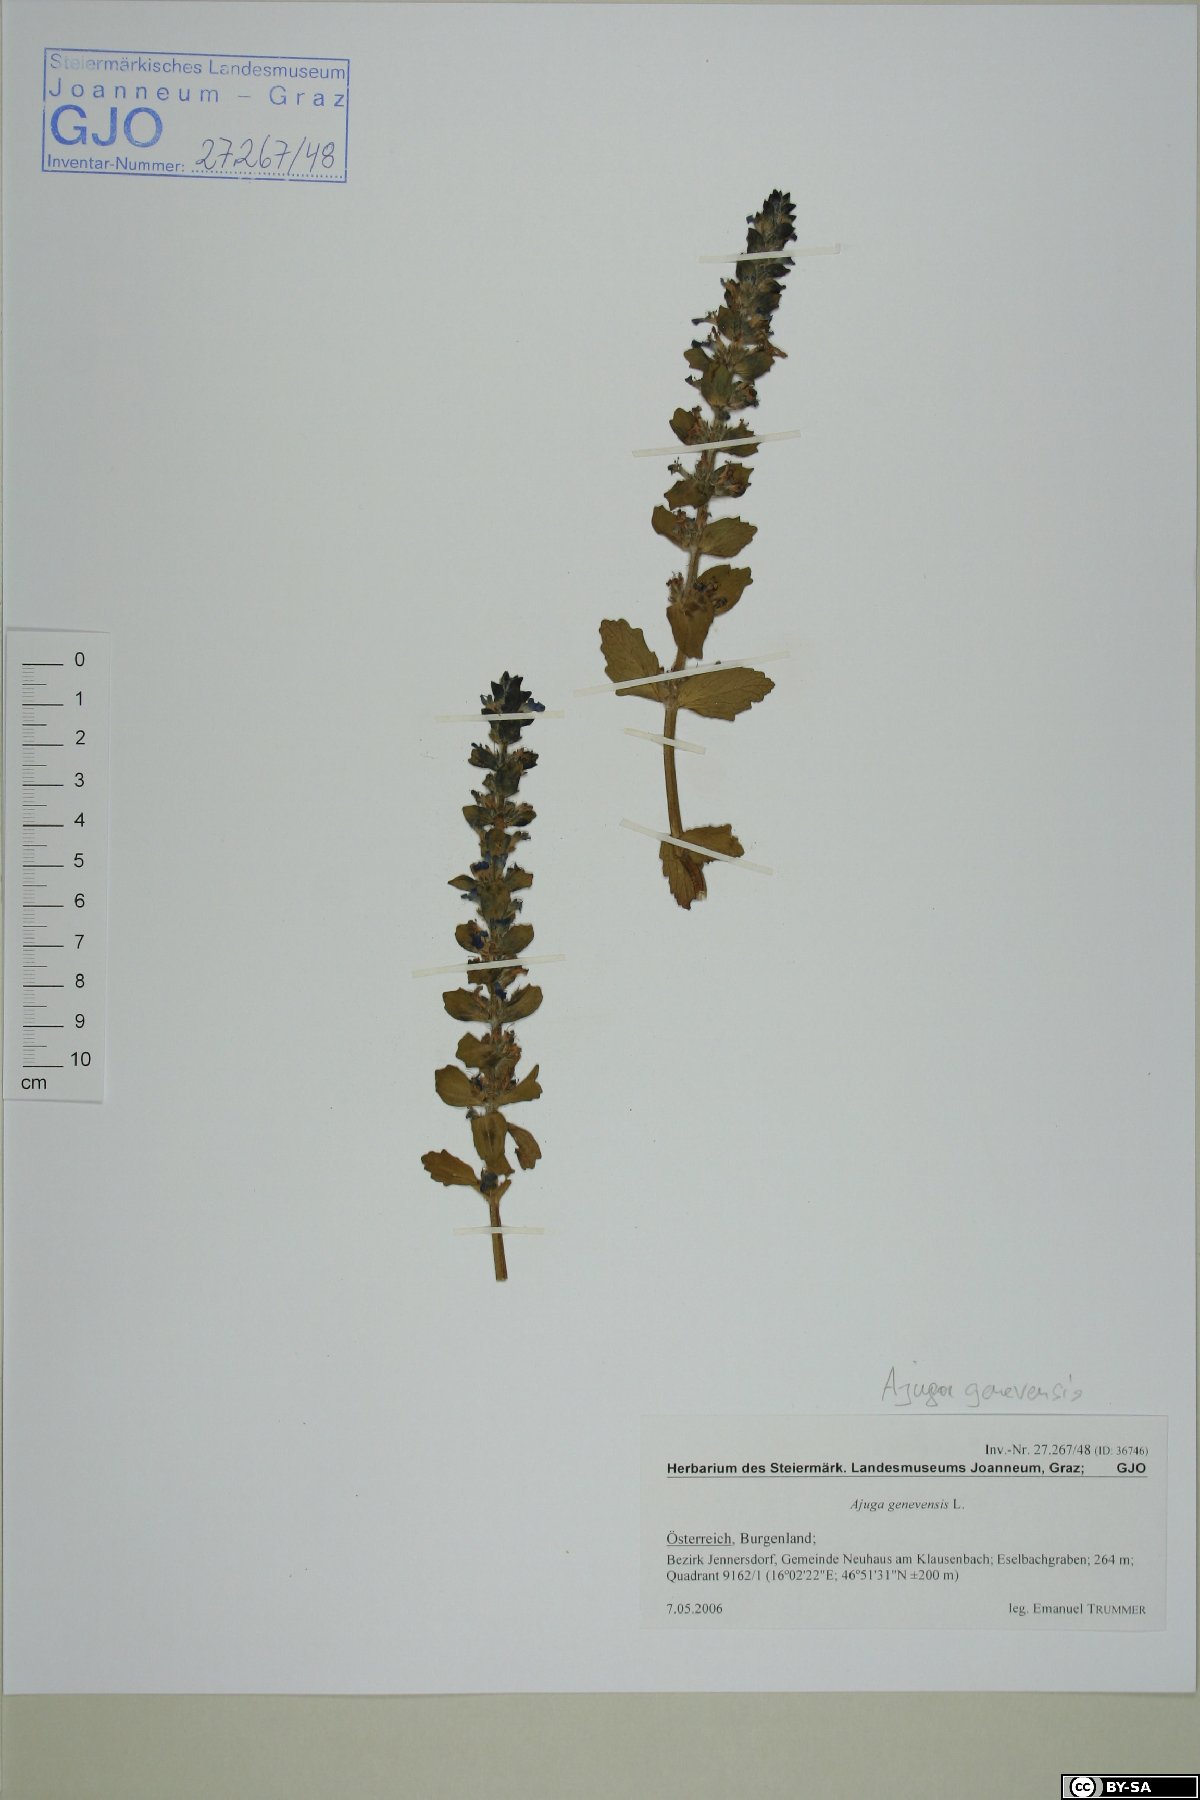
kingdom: Plantae
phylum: Tracheophyta
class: Magnoliopsida
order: Lamiales
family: Lamiaceae
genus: Ajuga
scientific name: Ajuga genevensis
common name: Blue bugle
